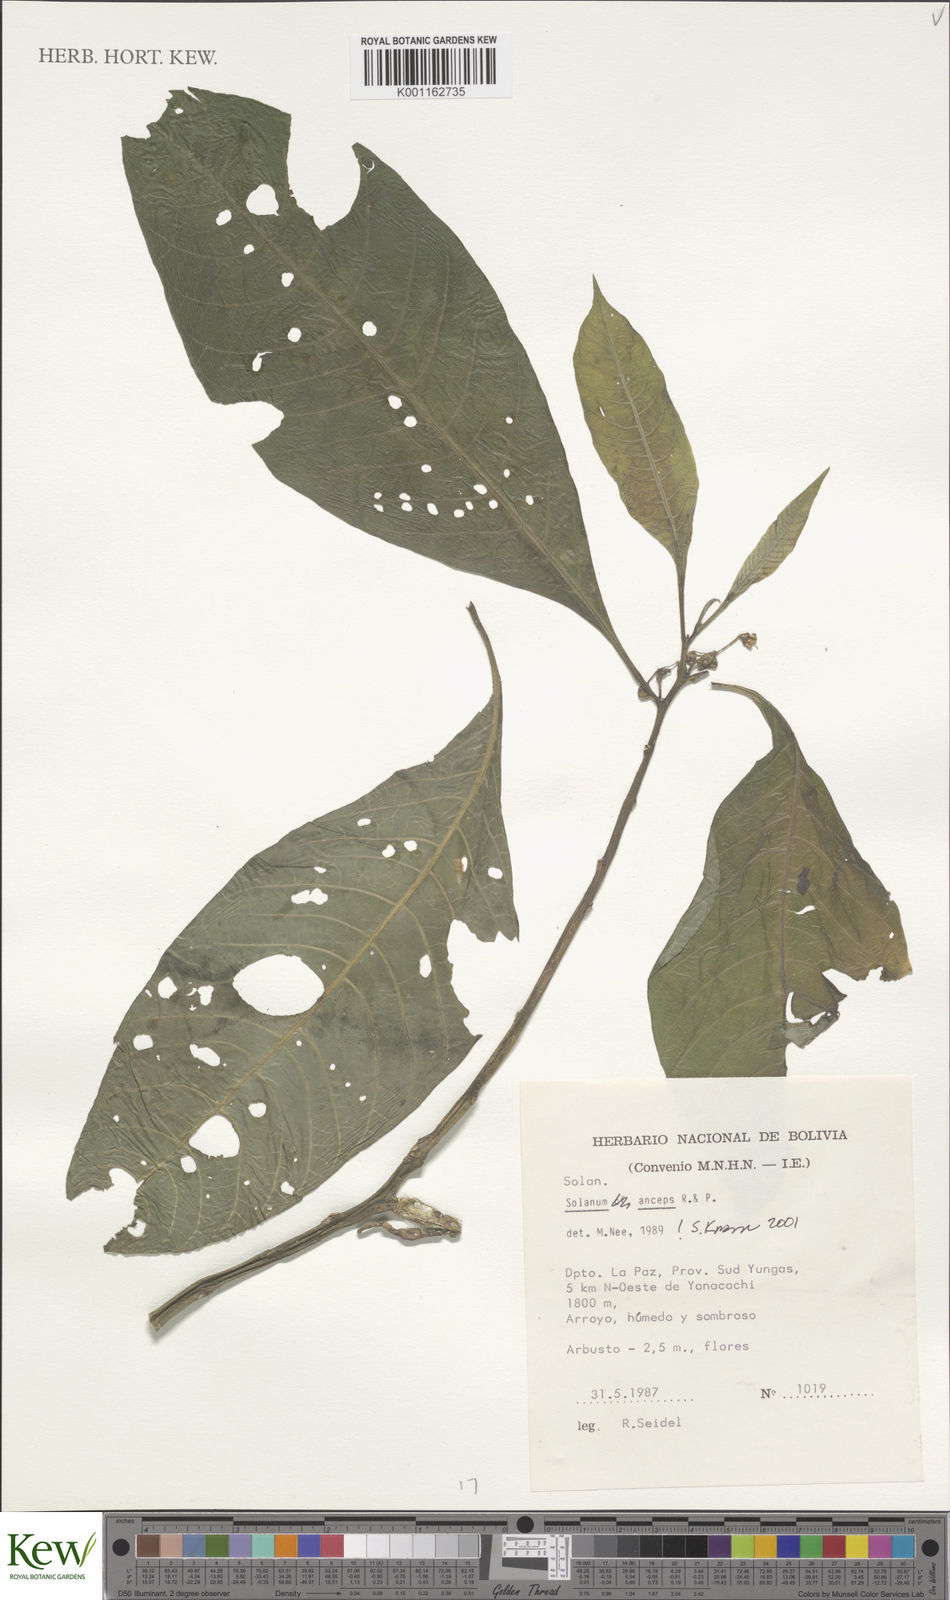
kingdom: Plantae
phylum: Tracheophyta
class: Magnoliopsida
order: Solanales
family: Solanaceae
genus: Solanum
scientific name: Solanum anceps
